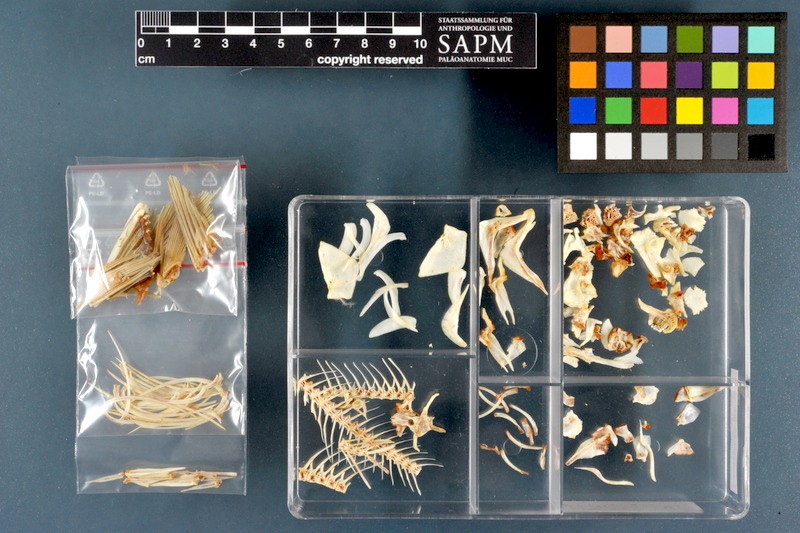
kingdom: Animalia
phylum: Chordata
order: Cypriniformes
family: Cyprinidae
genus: Carasobarbus
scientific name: Carasobarbus luteus
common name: Mesopotamian himri
